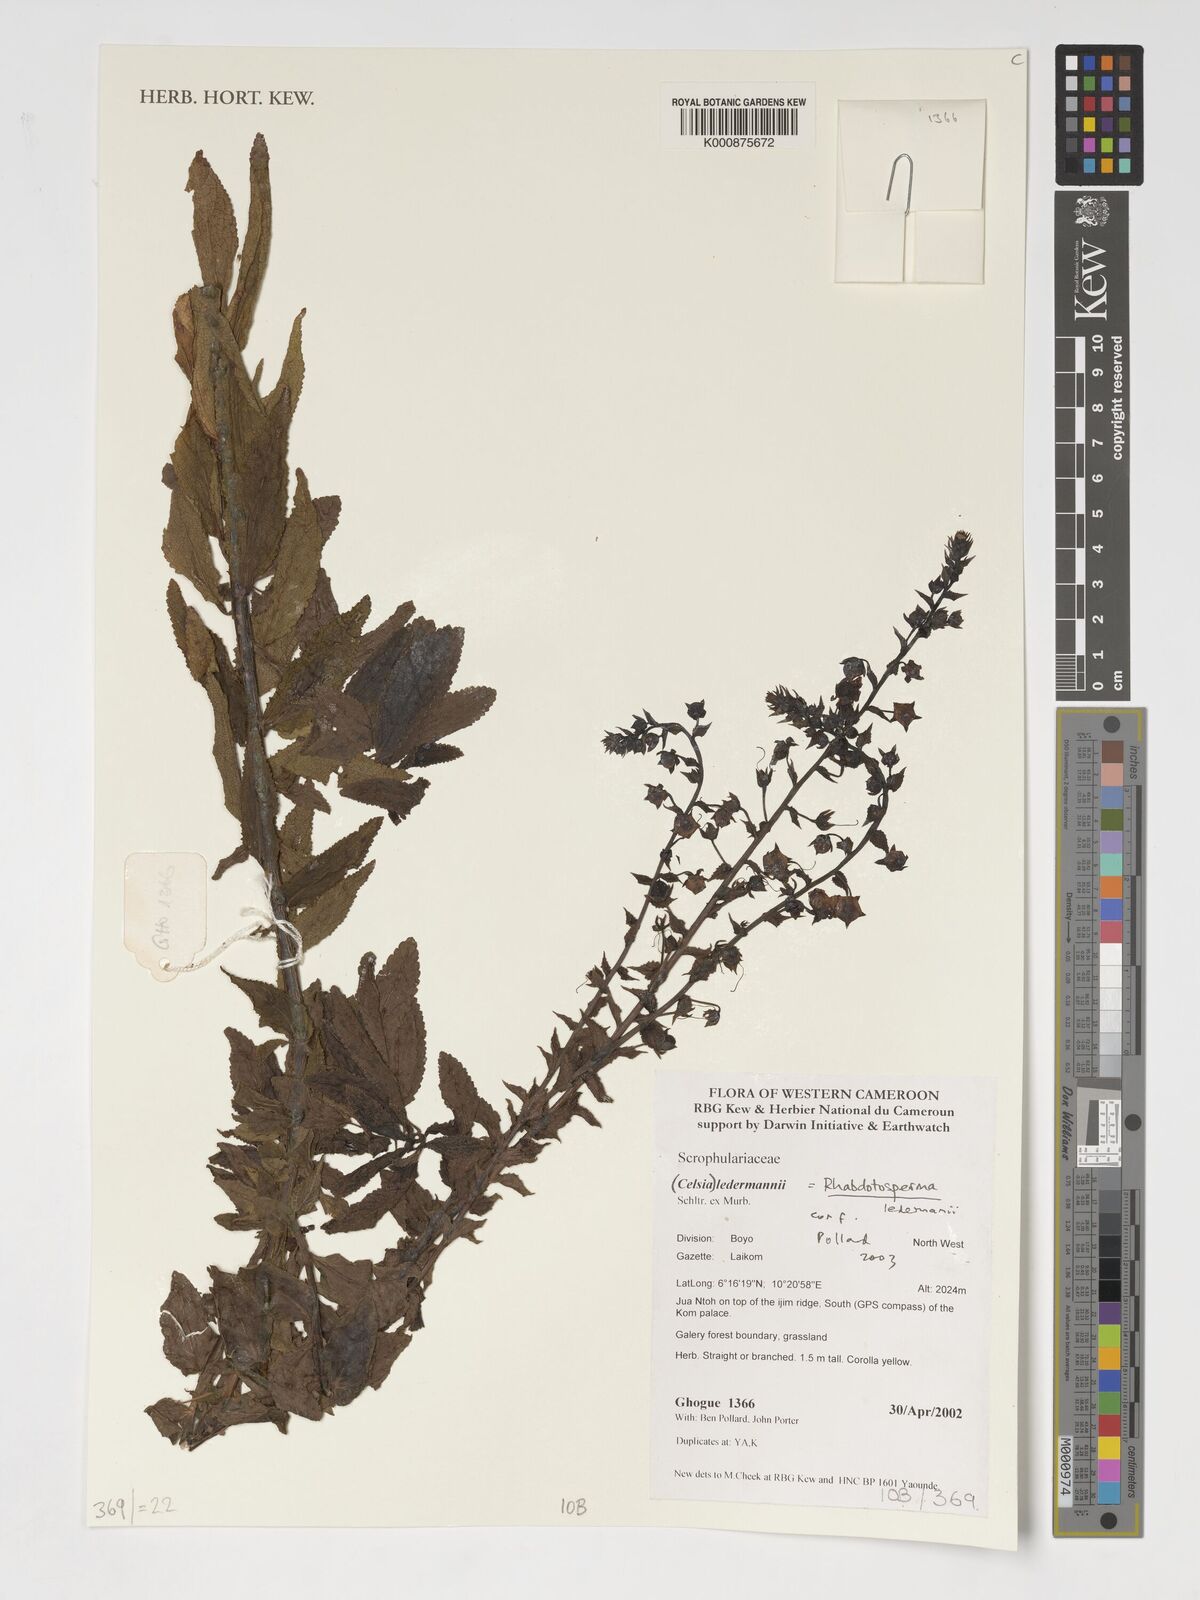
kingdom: Plantae
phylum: Tracheophyta
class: Magnoliopsida
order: Lamiales
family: Scrophulariaceae
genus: Rhabdotosperma
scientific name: Rhabdotosperma ledermannii
